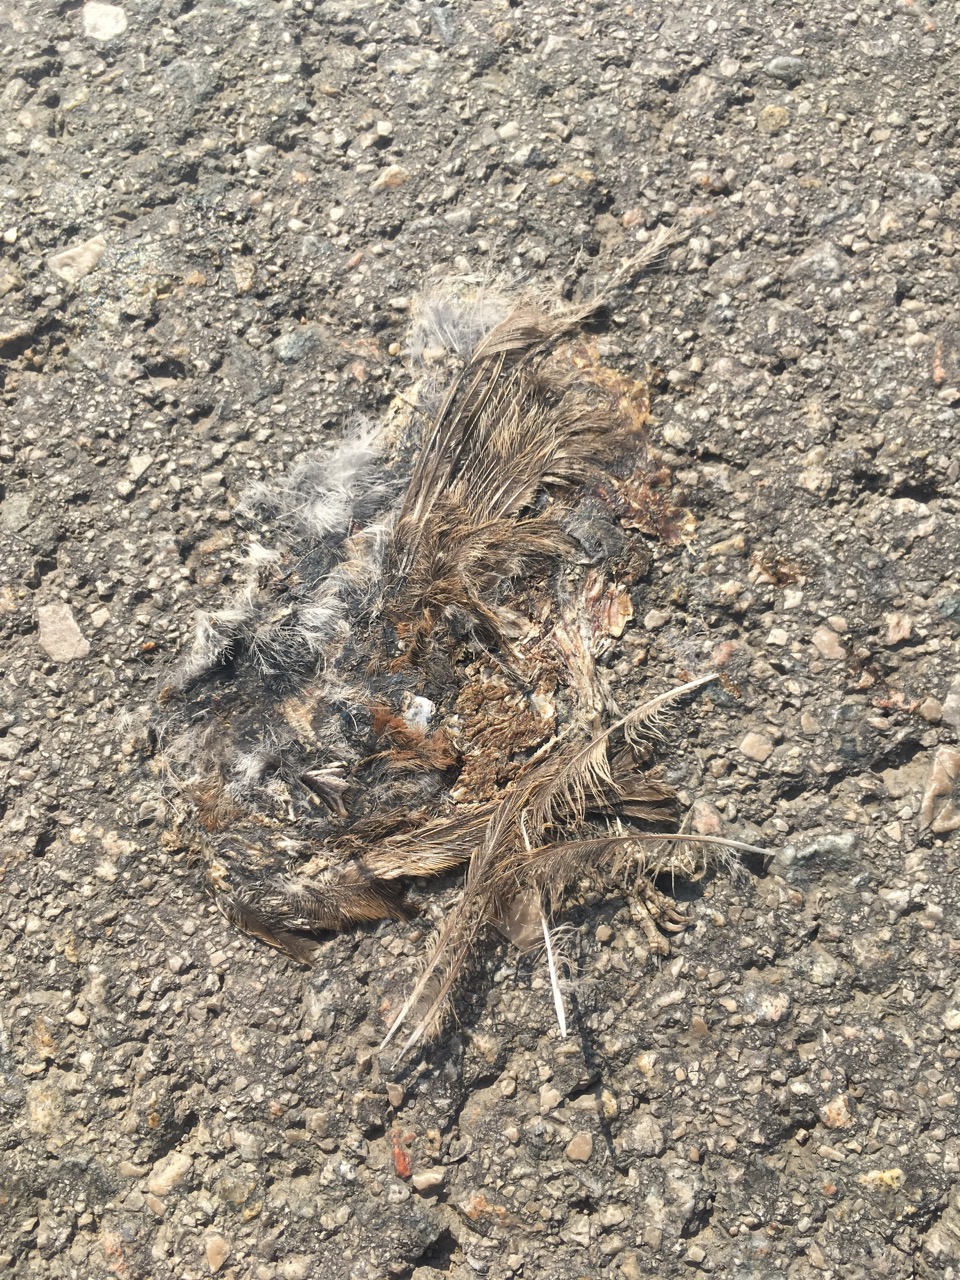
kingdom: Animalia
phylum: Chordata
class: Aves
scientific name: Aves
